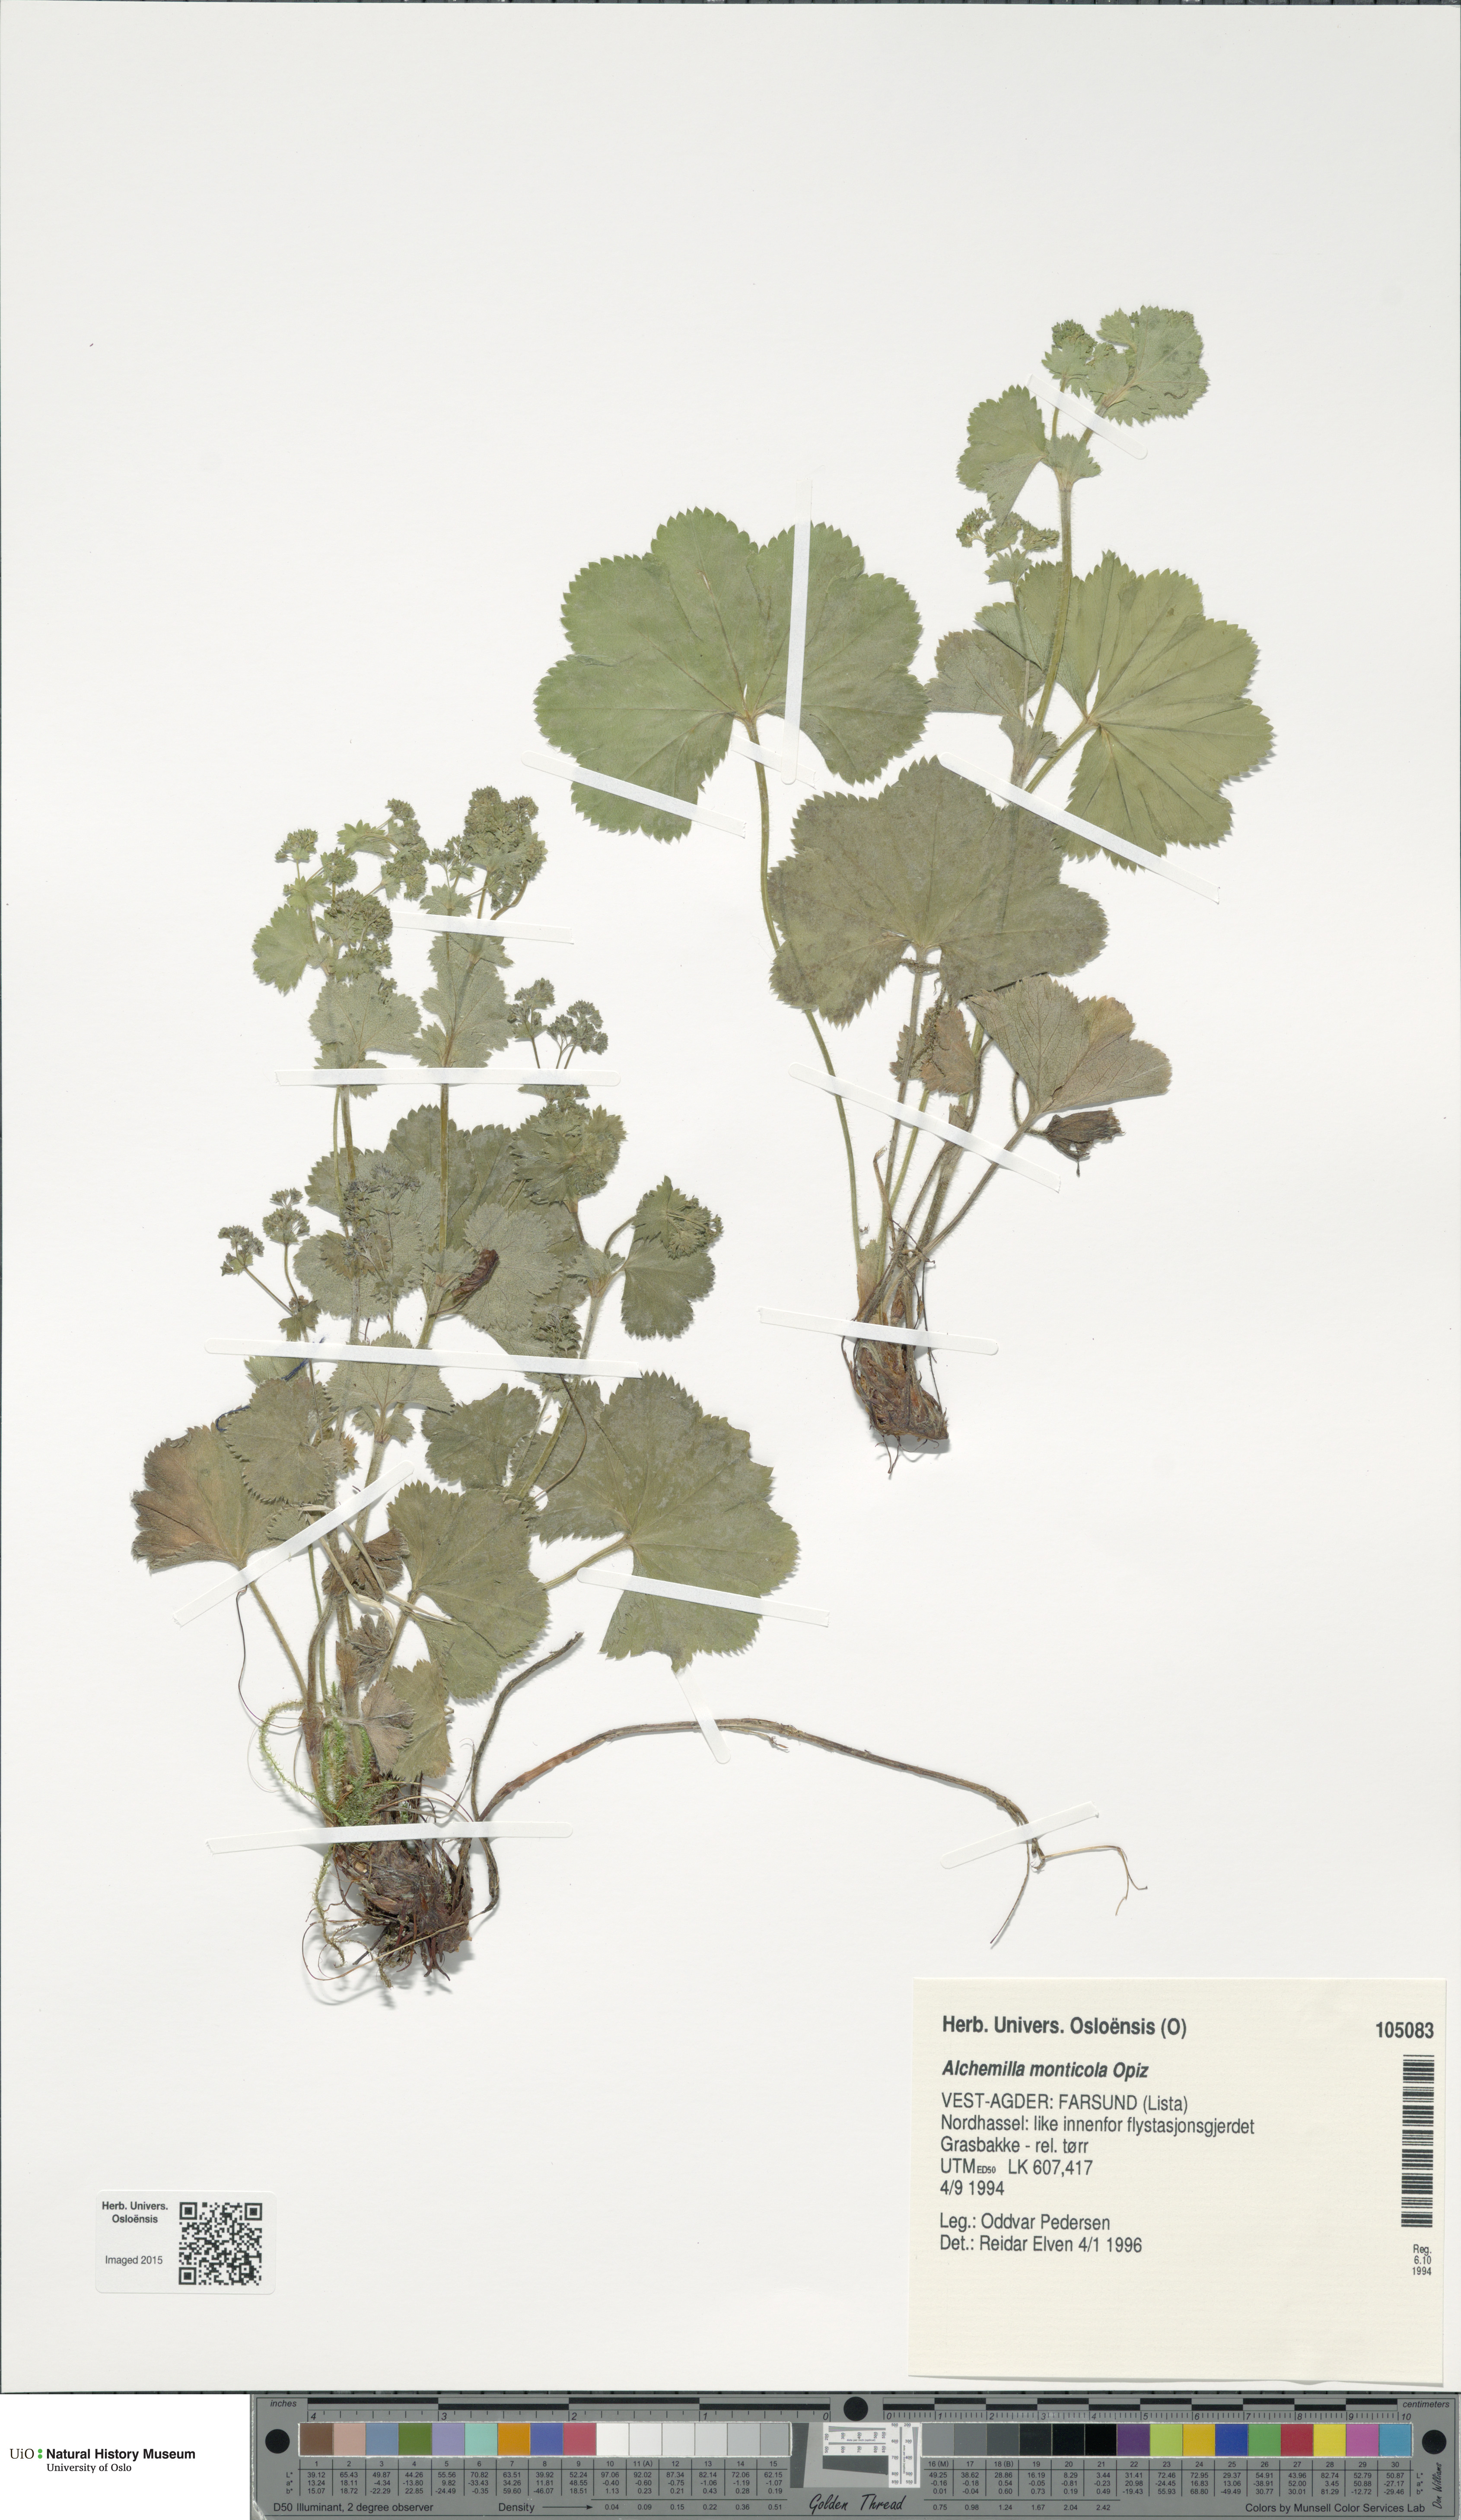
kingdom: Plantae
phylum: Tracheophyta
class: Magnoliopsida
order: Rosales
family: Rosaceae
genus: Alchemilla
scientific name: Alchemilla monticola
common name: Hairy lady's mantle
